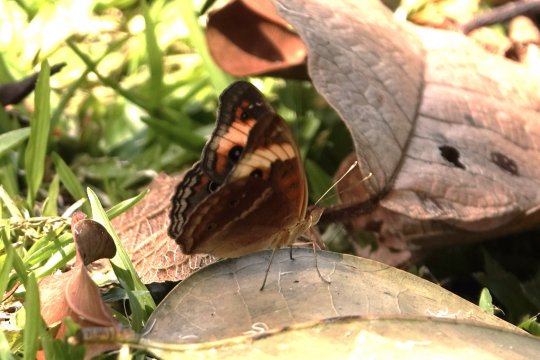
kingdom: Animalia
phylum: Arthropoda
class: Insecta
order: Lepidoptera
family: Nymphalidae
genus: Junonia
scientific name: Junonia lavinia
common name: Tropical Buckeye
